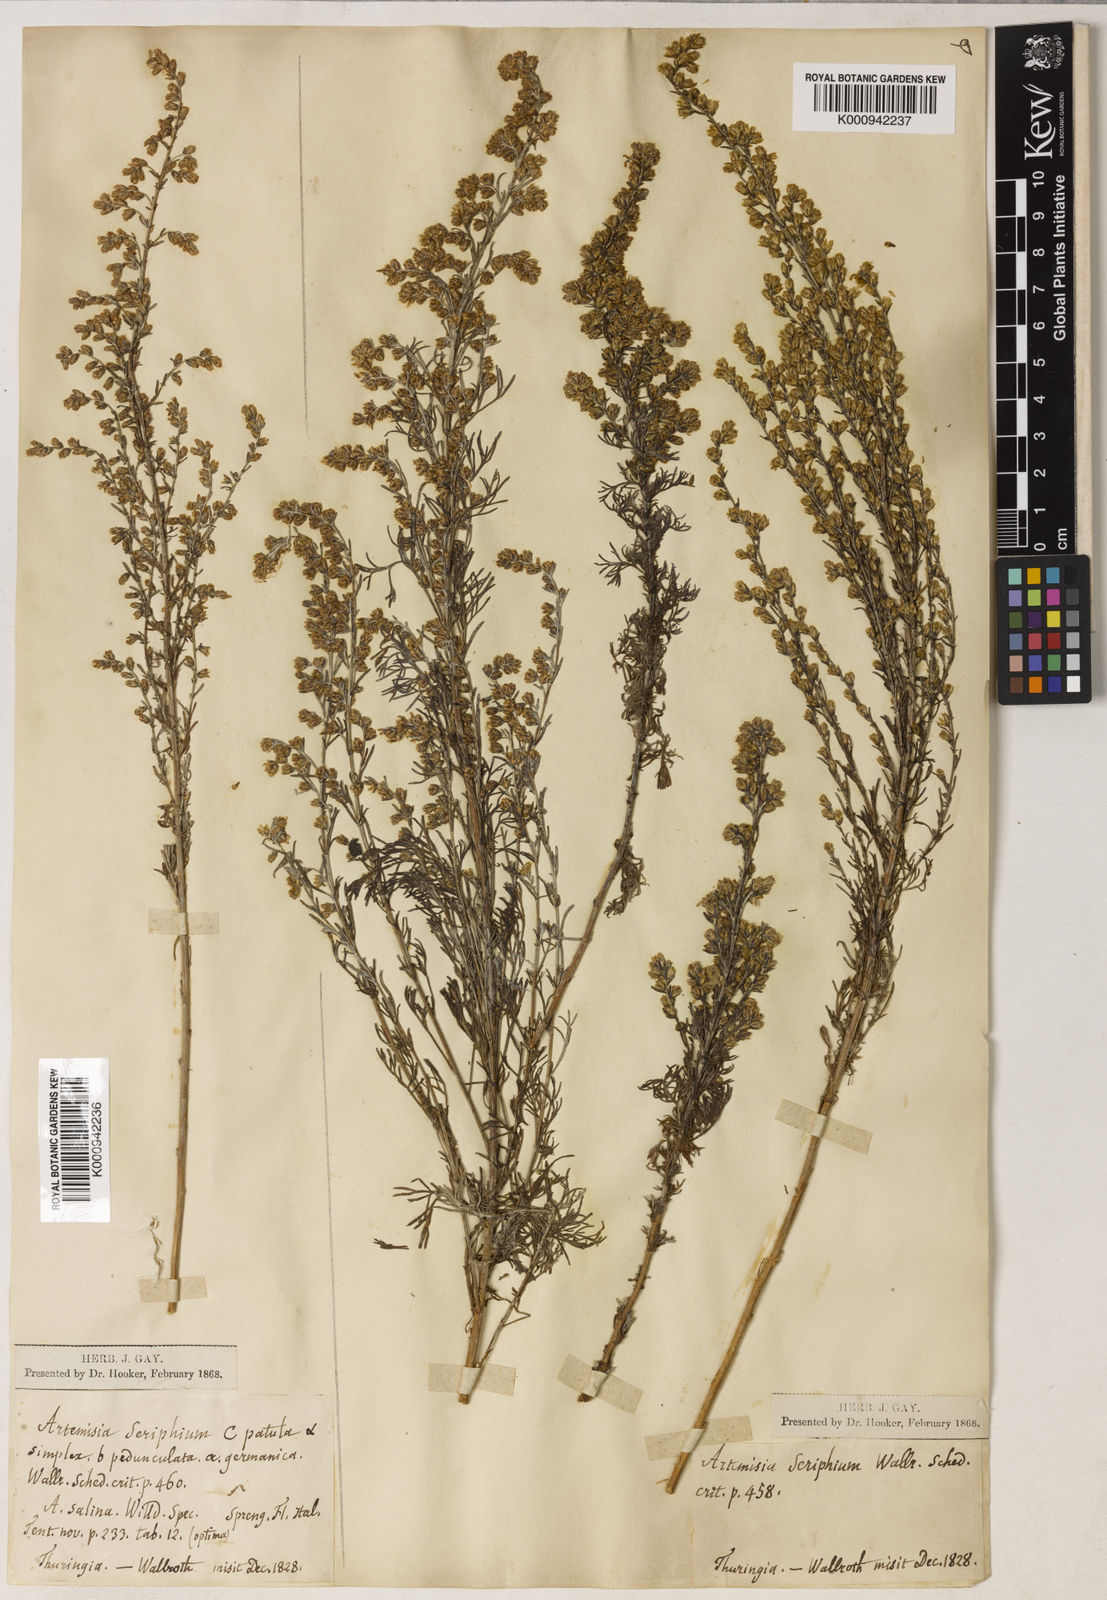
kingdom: Plantae
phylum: Tracheophyta
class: Magnoliopsida
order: Asterales
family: Asteraceae
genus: Artemisia
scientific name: Artemisia maritima
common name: Wormseed
